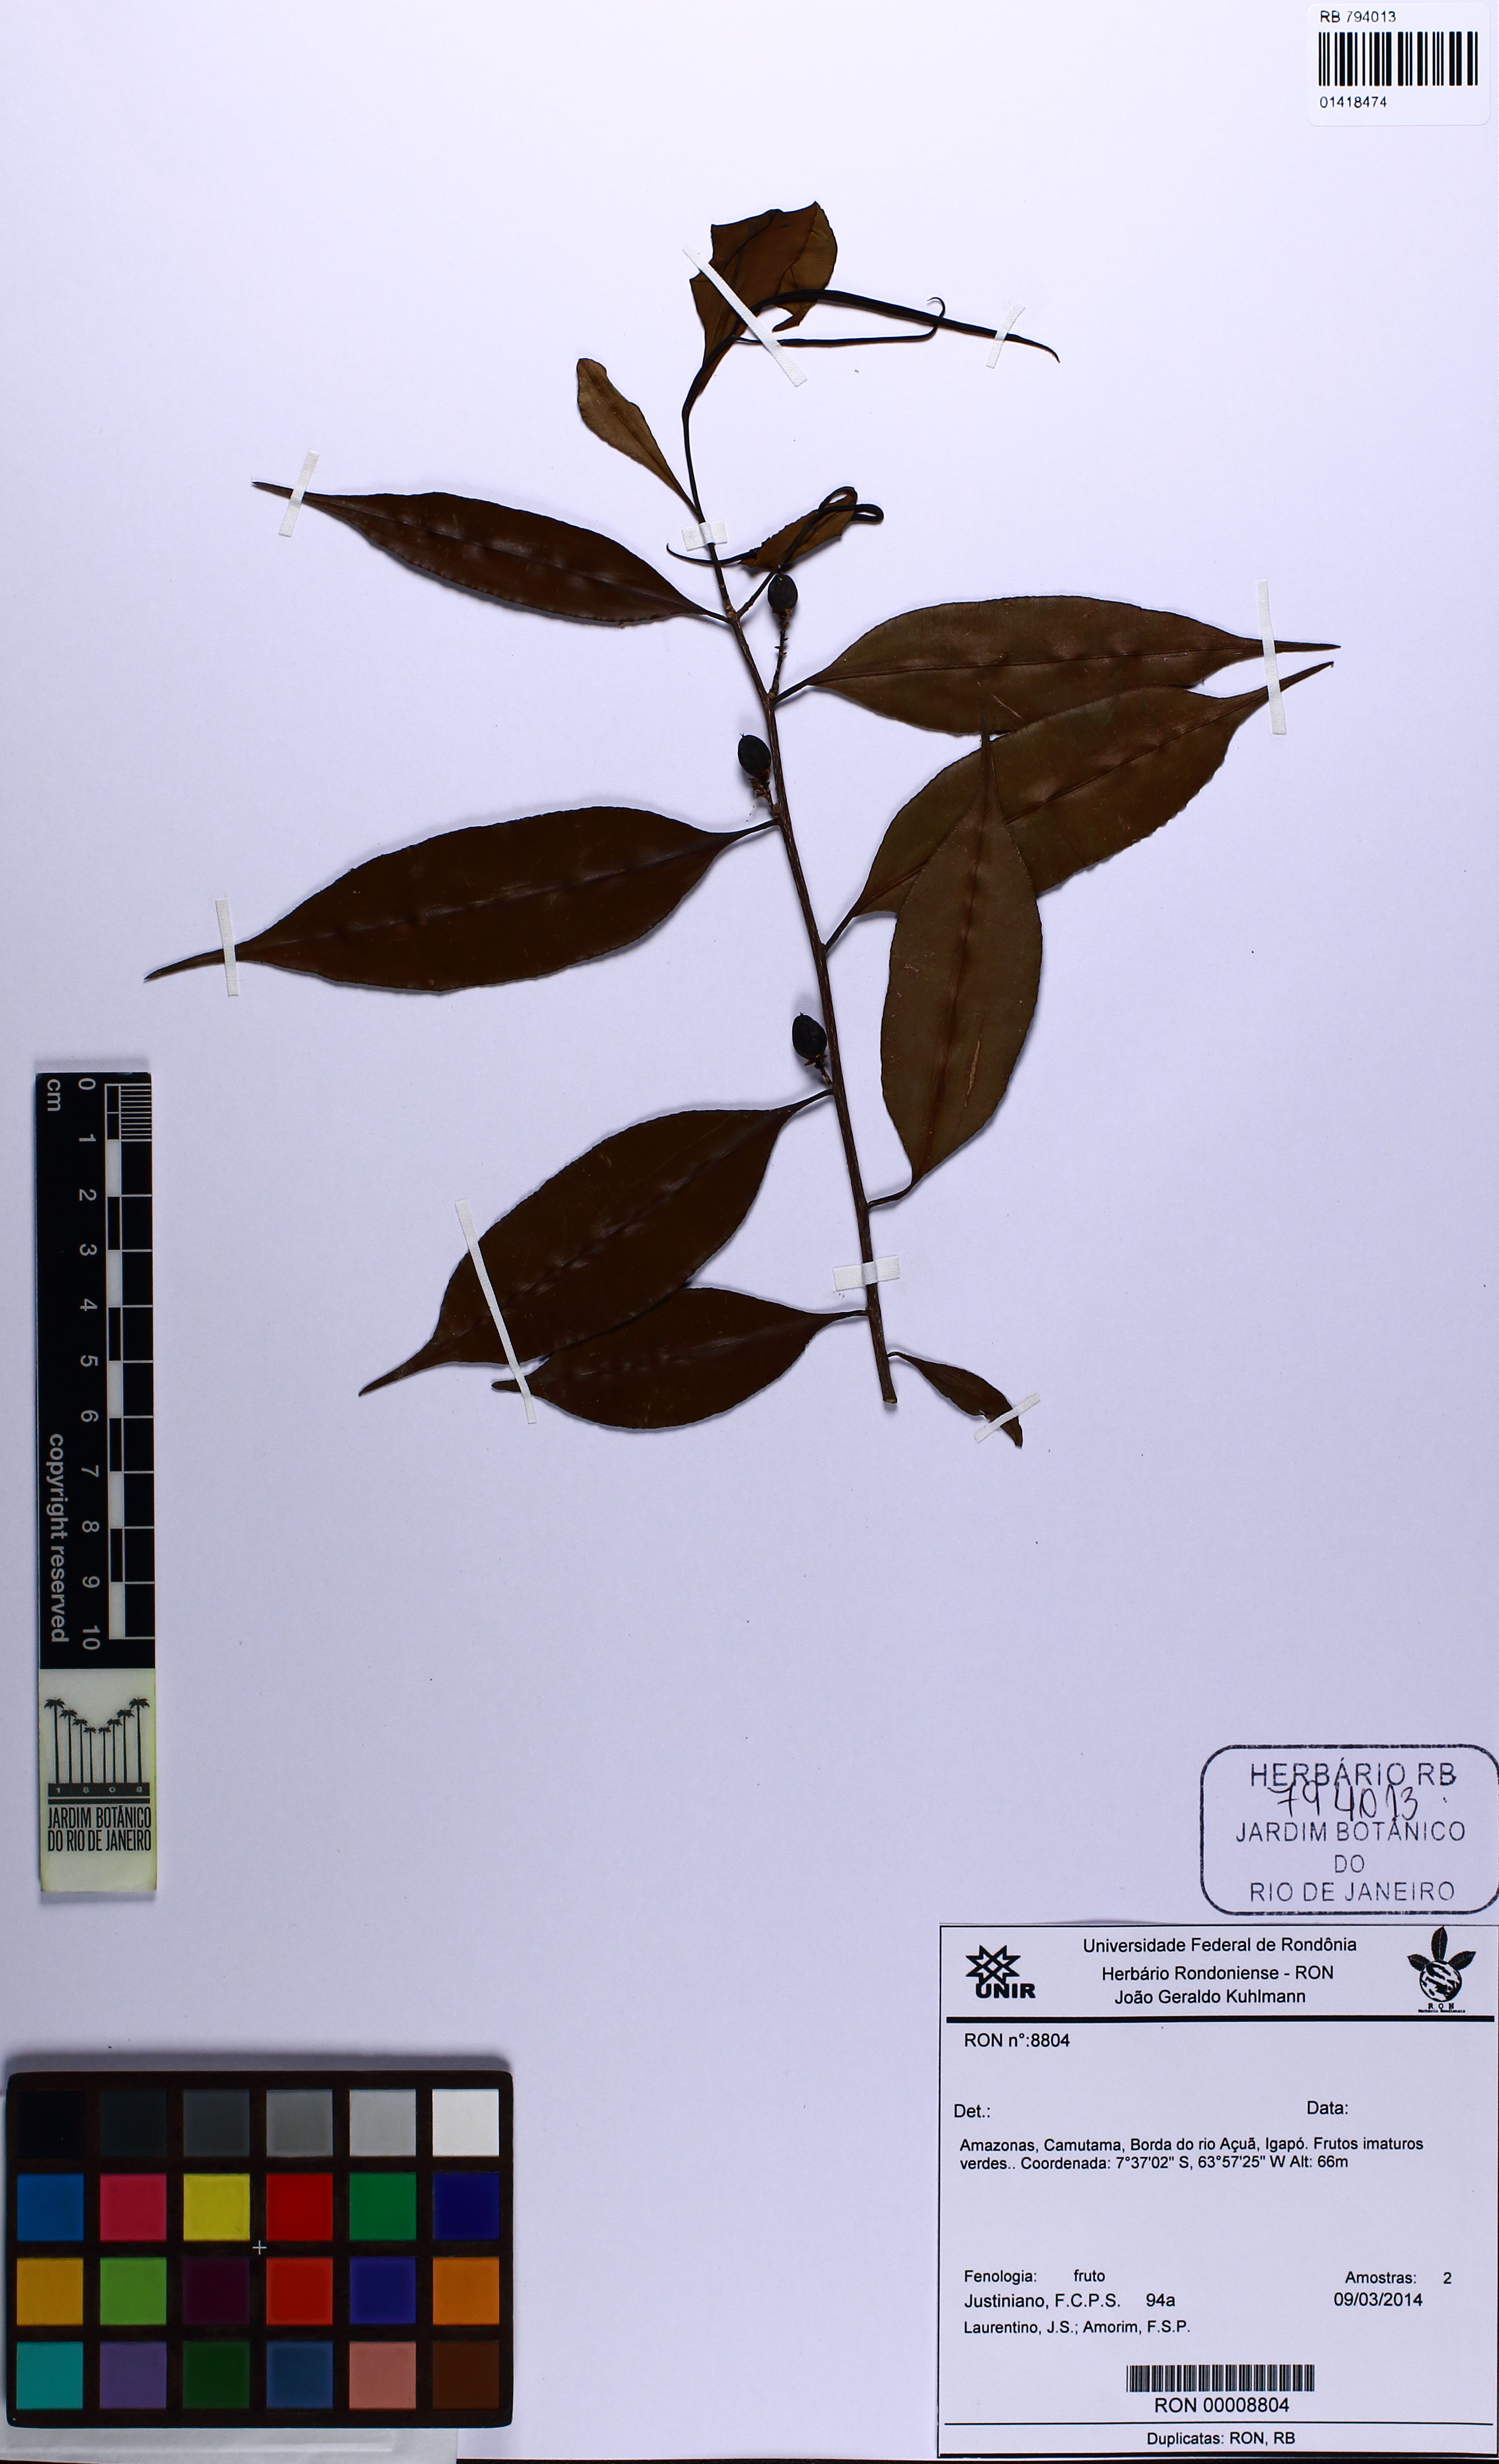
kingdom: Plantae
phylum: Tracheophyta
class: Magnoliopsida
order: Lamiales
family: Lamiaceae
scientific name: Lamiaceae
